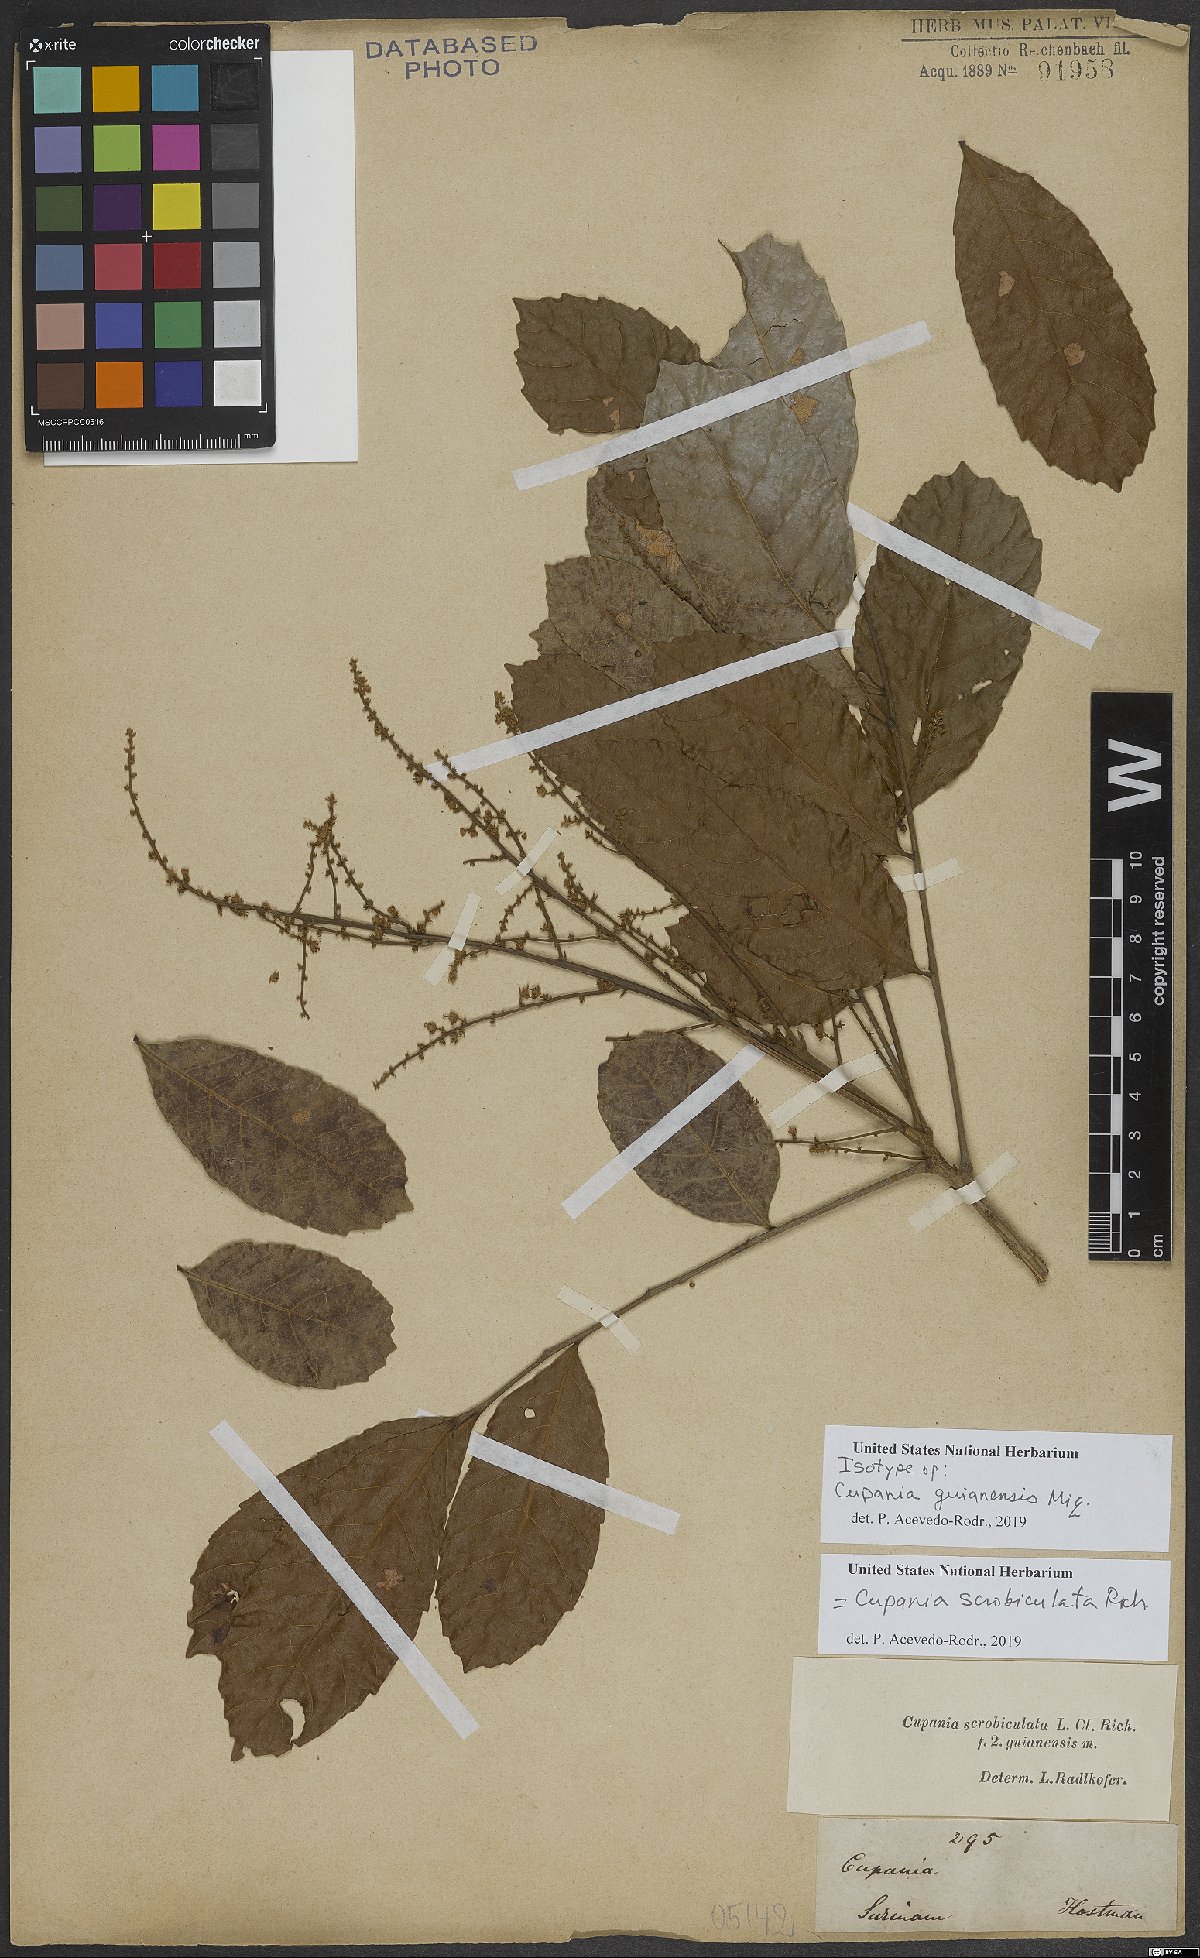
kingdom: Plantae
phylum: Tracheophyta
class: Magnoliopsida
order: Sapindales
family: Sapindaceae
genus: Cupania
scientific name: Cupania scrobiculata
